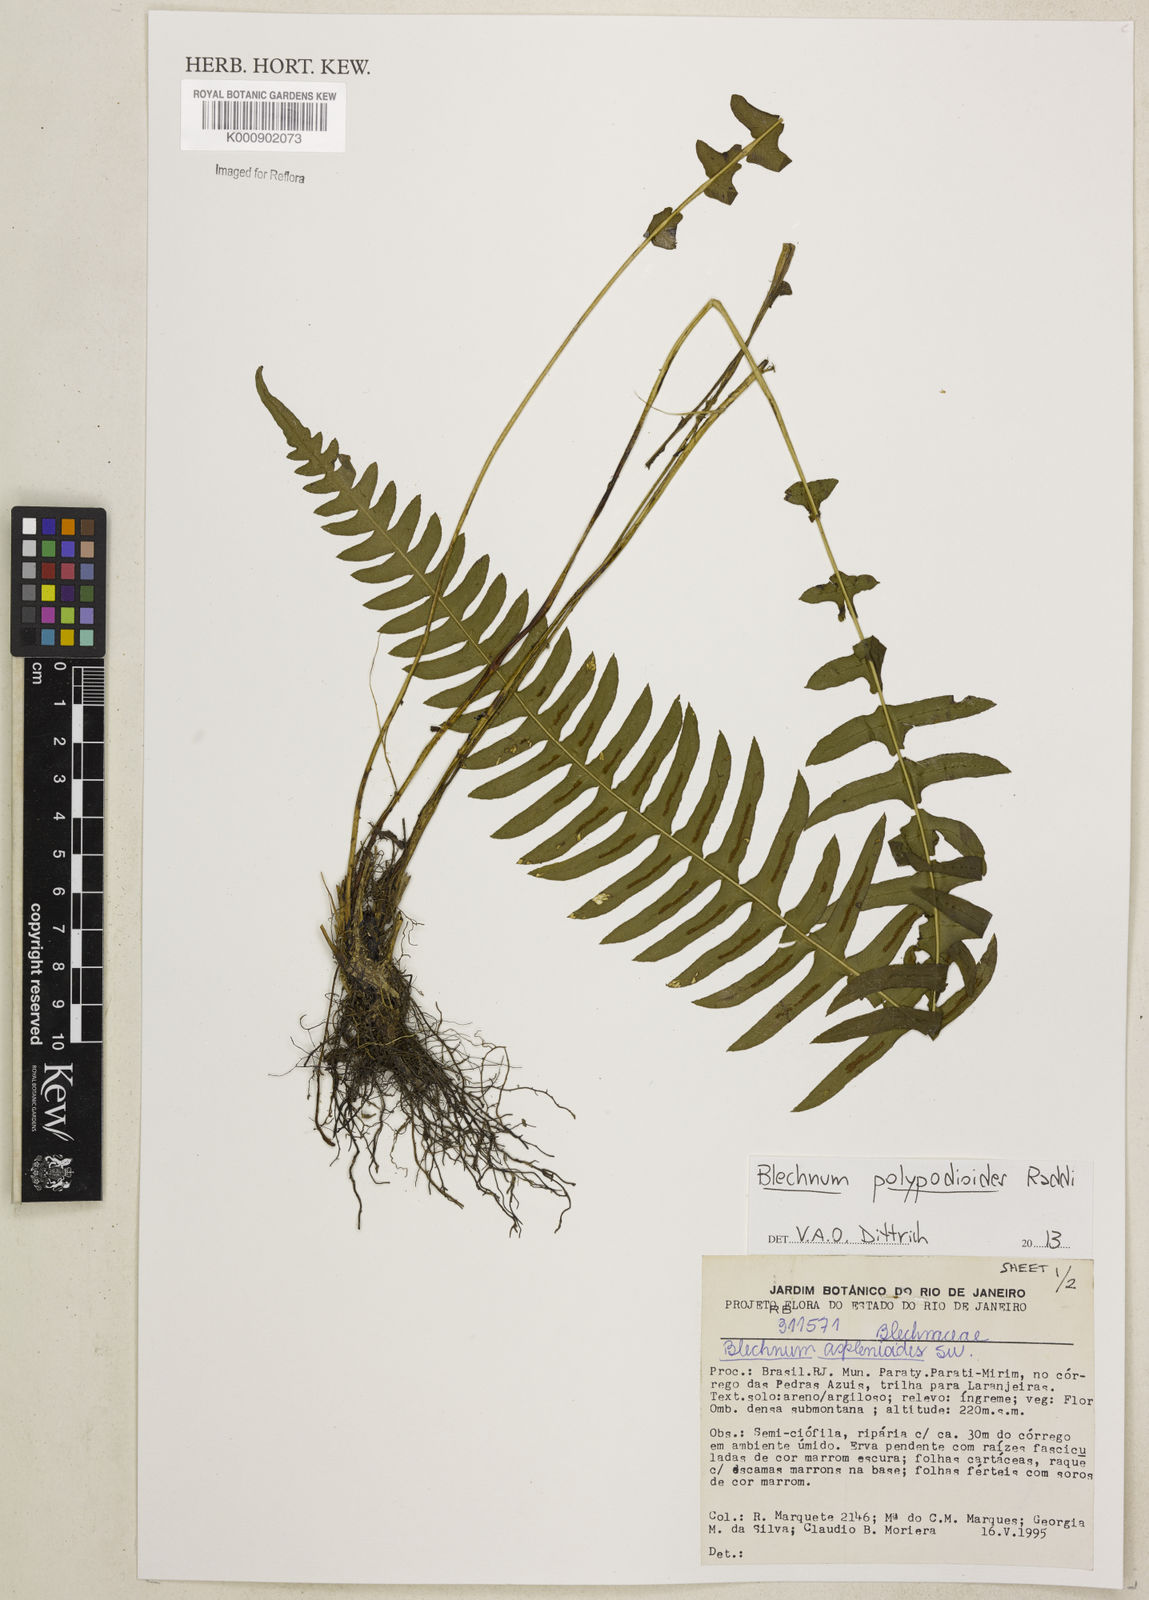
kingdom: Plantae
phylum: Tracheophyta
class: Polypodiopsida
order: Polypodiales
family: Blechnaceae
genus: Blechnum
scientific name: Blechnum polypodioides
